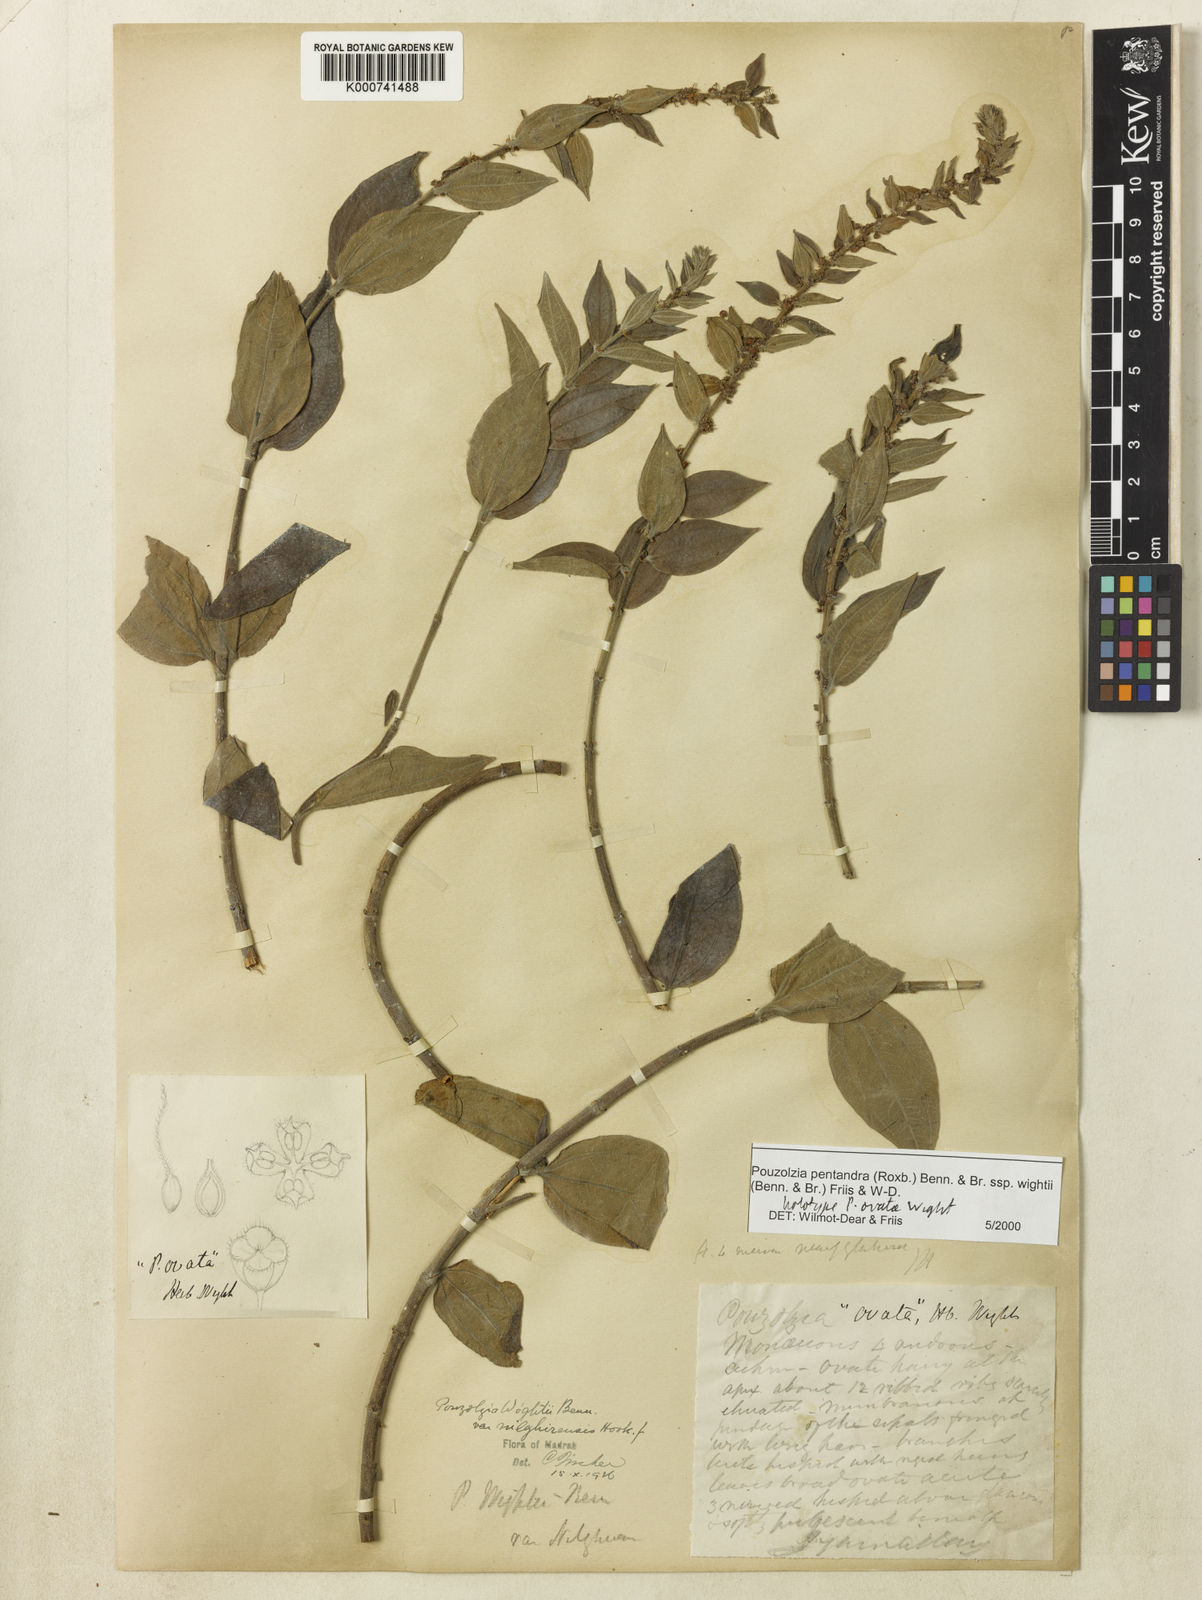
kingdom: Plantae
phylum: Tracheophyta
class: Magnoliopsida
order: Rosales
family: Urticaceae
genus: Gonostegia
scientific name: Gonostegia pentandra
